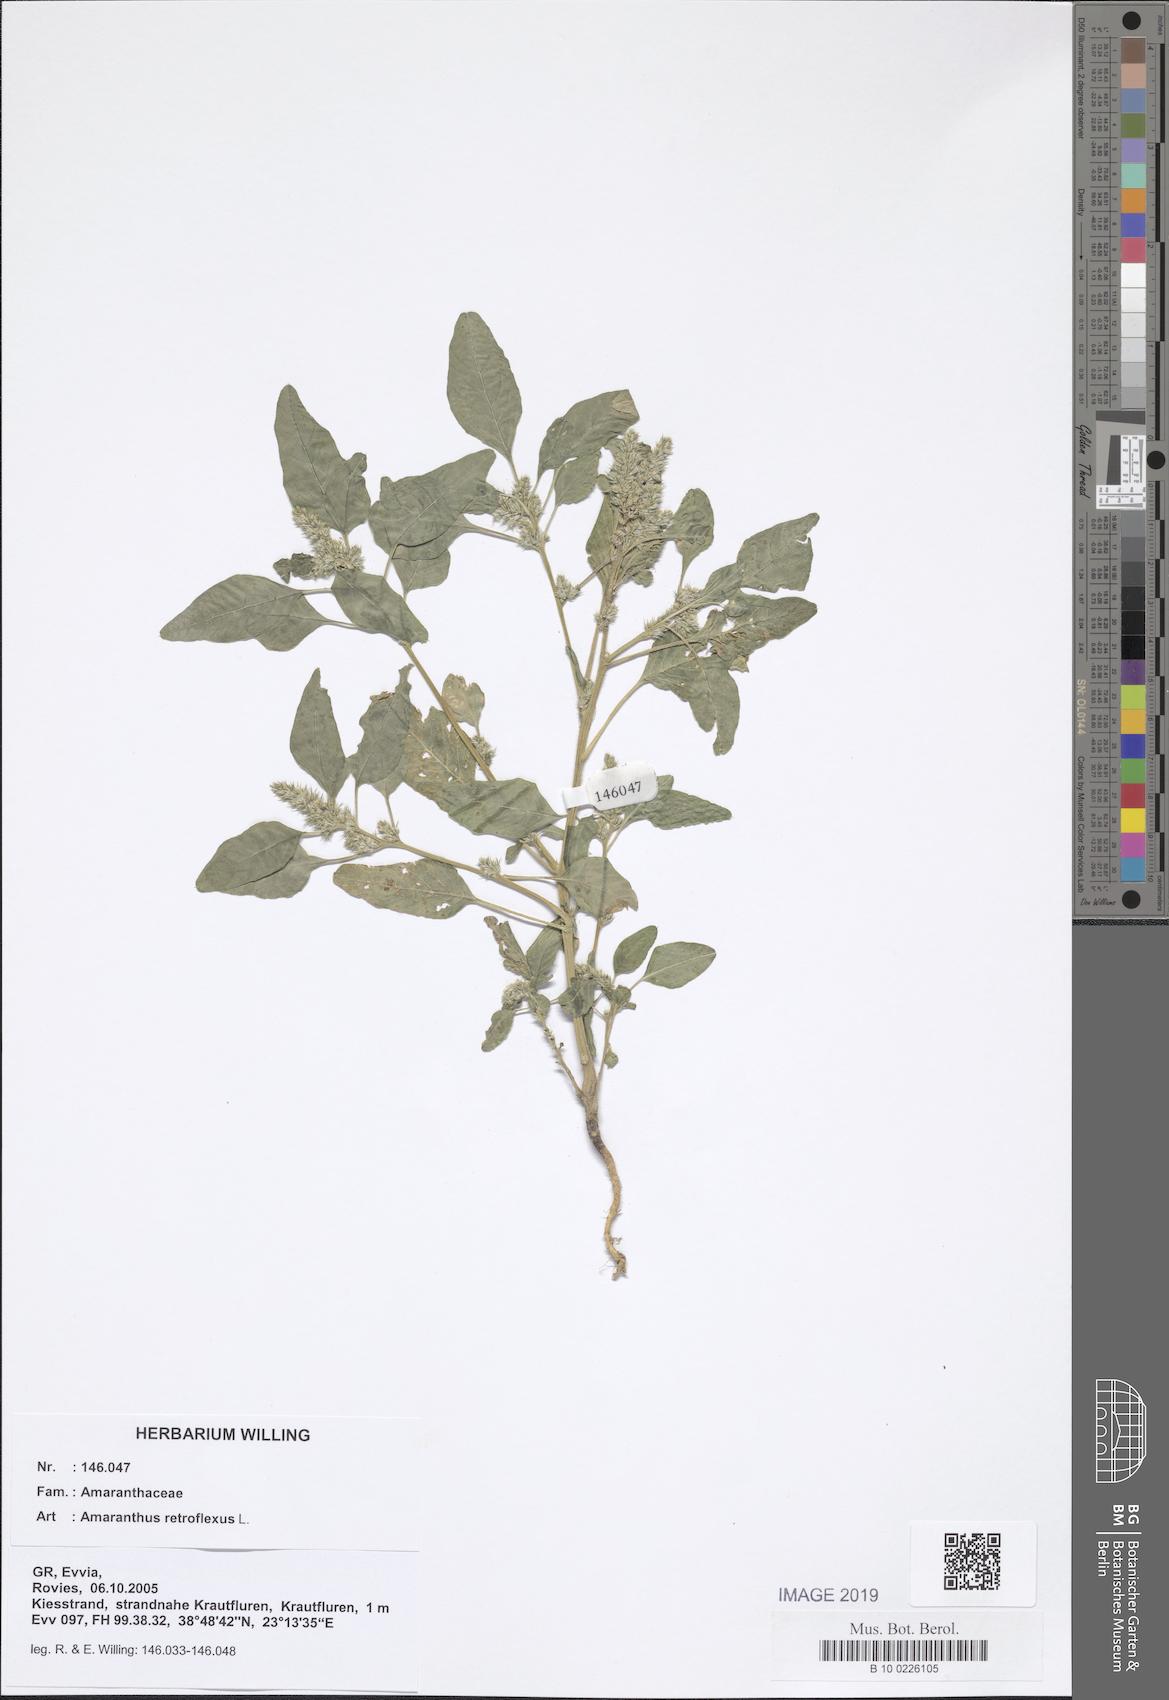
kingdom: Plantae
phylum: Tracheophyta
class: Magnoliopsida
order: Caryophyllales
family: Amaranthaceae
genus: Amaranthus
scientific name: Amaranthus retroflexus
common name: Redroot amaranth
